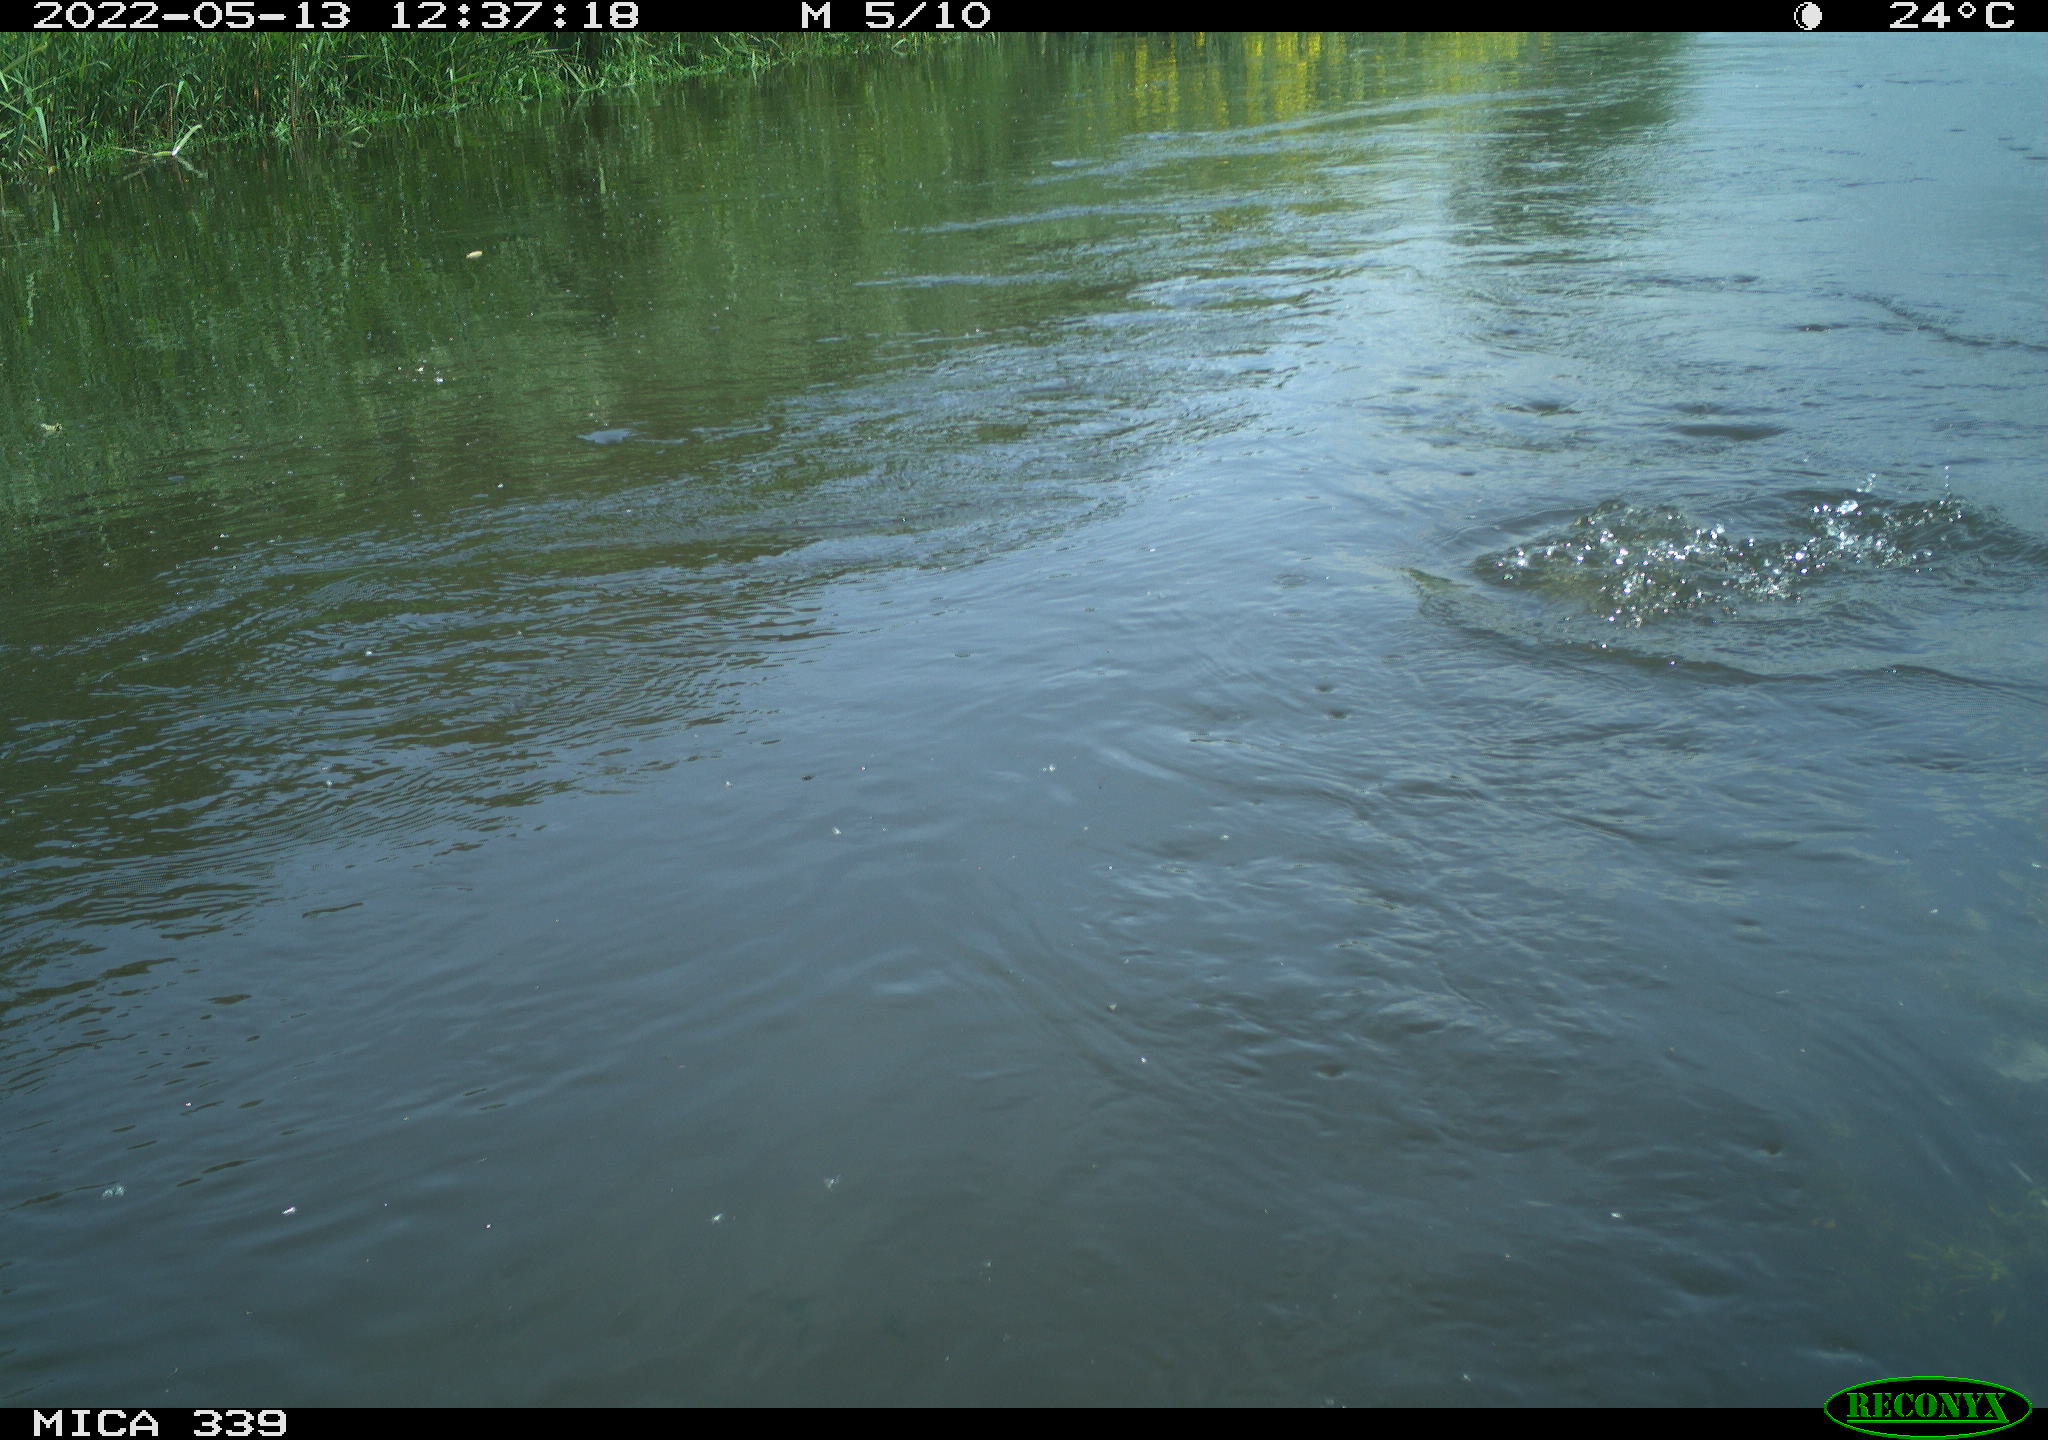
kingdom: Animalia
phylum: Chordata
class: Aves
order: Gruiformes
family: Rallidae
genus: Fulica
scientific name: Fulica atra
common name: Eurasian coot
